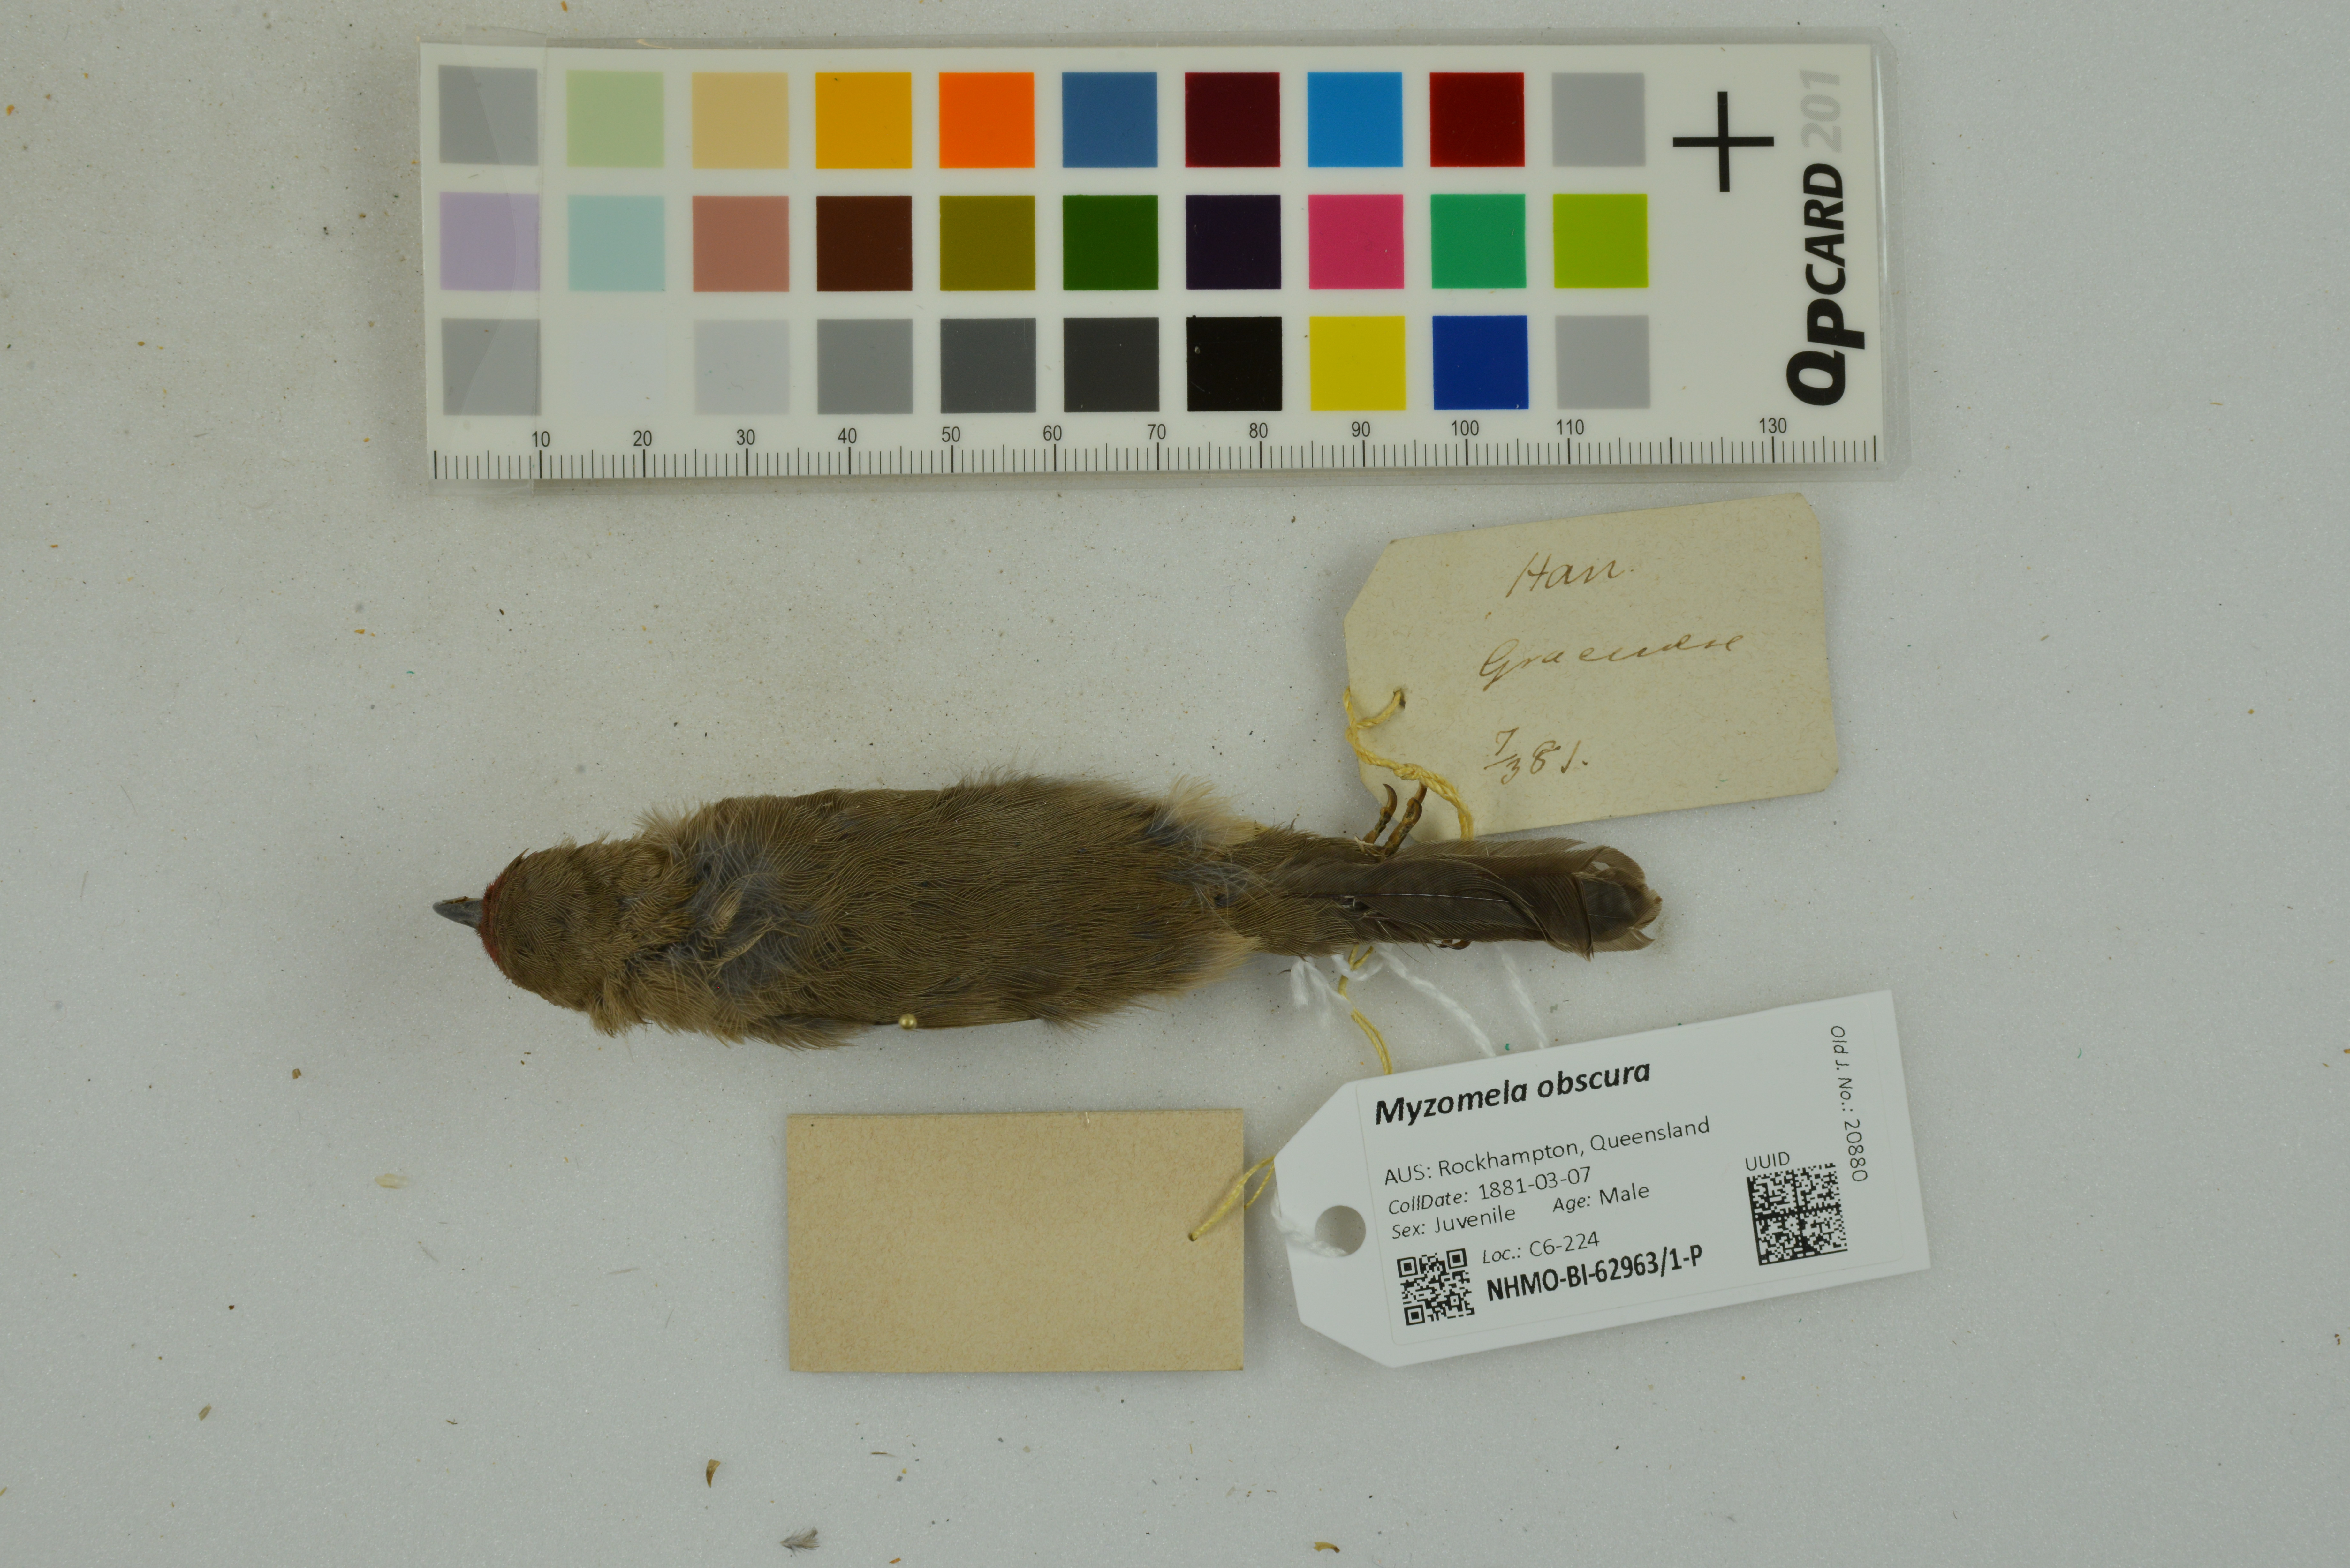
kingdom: Animalia
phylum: Chordata
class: Aves
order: Passeriformes
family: Meliphagidae
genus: Myzomela
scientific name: Myzomela obscura
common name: Dusky myzomela
